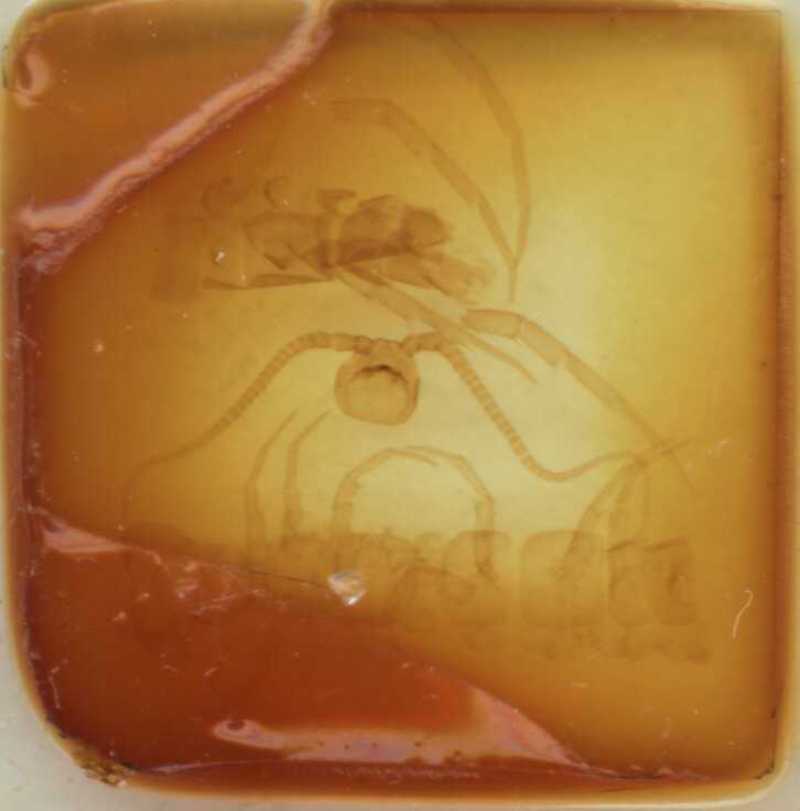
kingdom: Animalia
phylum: Arthropoda
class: Chilopoda
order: Lithobiomorpha
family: Lithobiidae
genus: Lithobius
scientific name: Lithobius nodulipes
